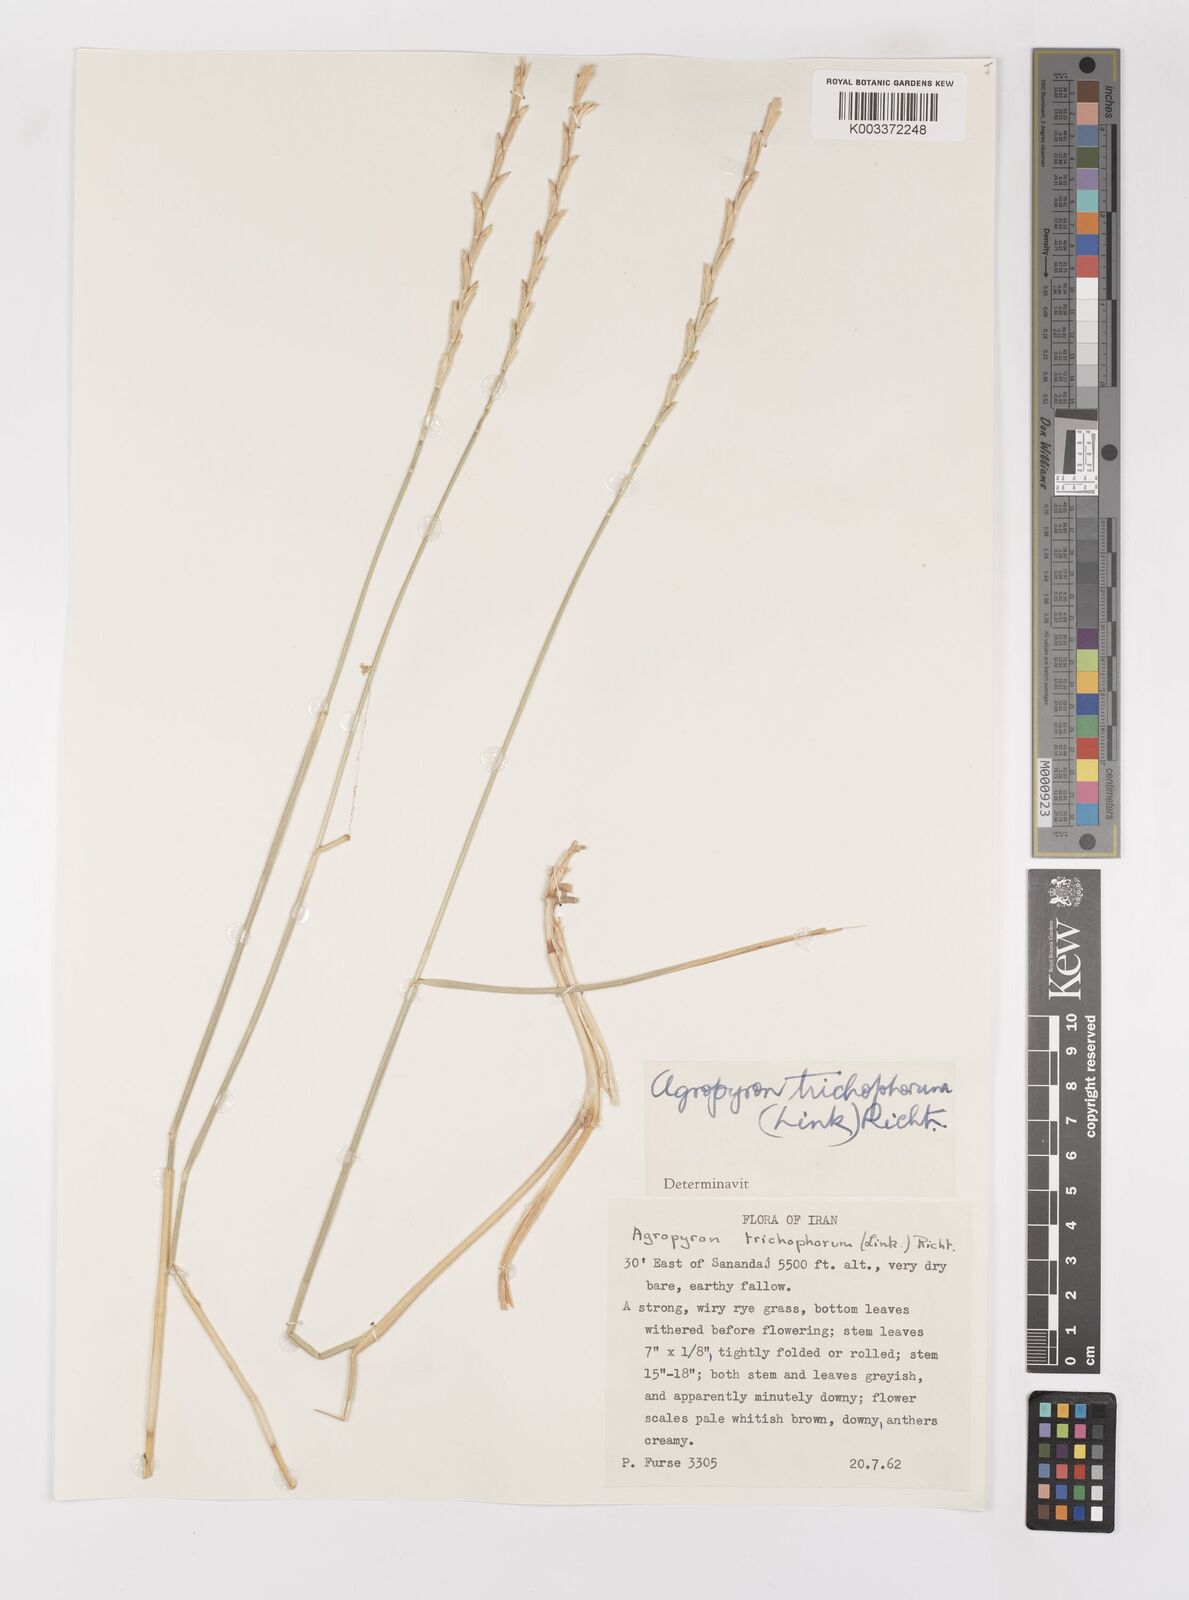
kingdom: Plantae
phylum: Tracheophyta
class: Liliopsida
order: Poales
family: Poaceae
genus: Thinopyrum
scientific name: Thinopyrum intermedium
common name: Intermediate wheatgrass
